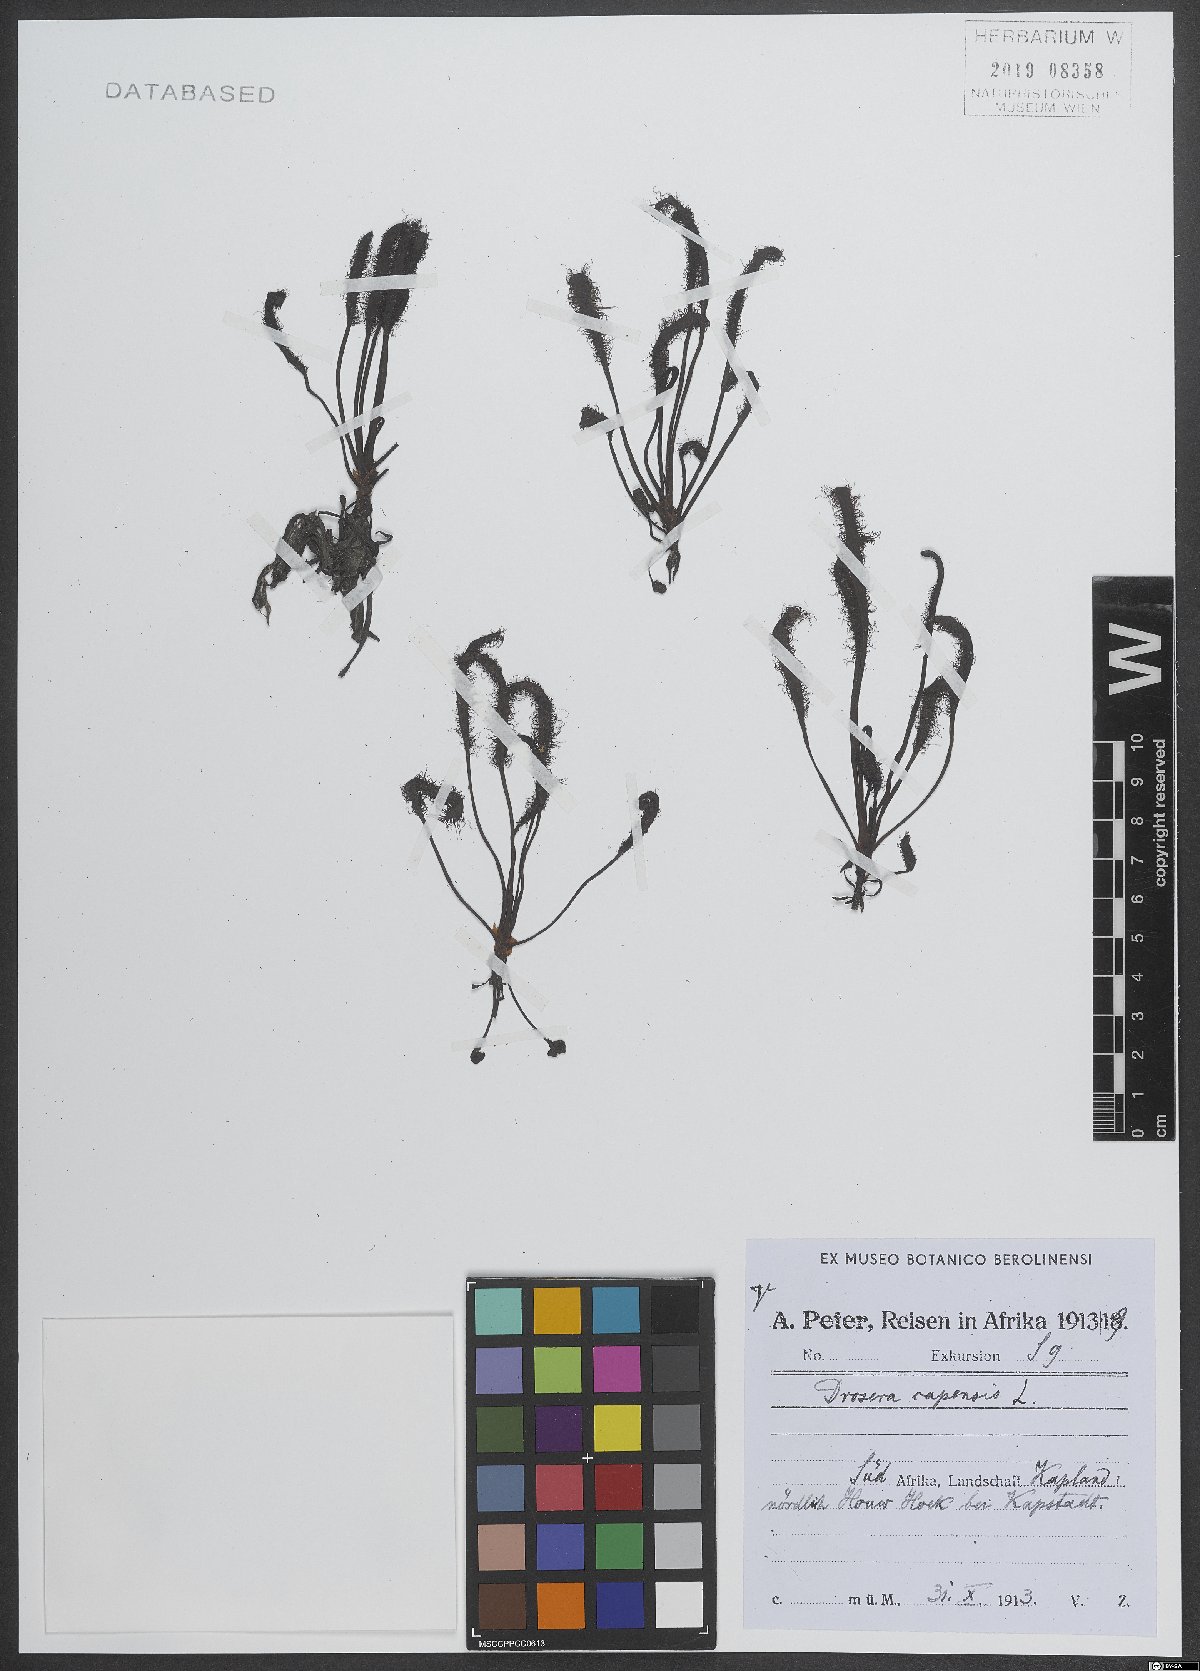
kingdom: Plantae
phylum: Tracheophyta
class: Magnoliopsida
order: Caryophyllales
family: Droseraceae
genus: Drosera
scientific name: Drosera capensis
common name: Cape sundew
